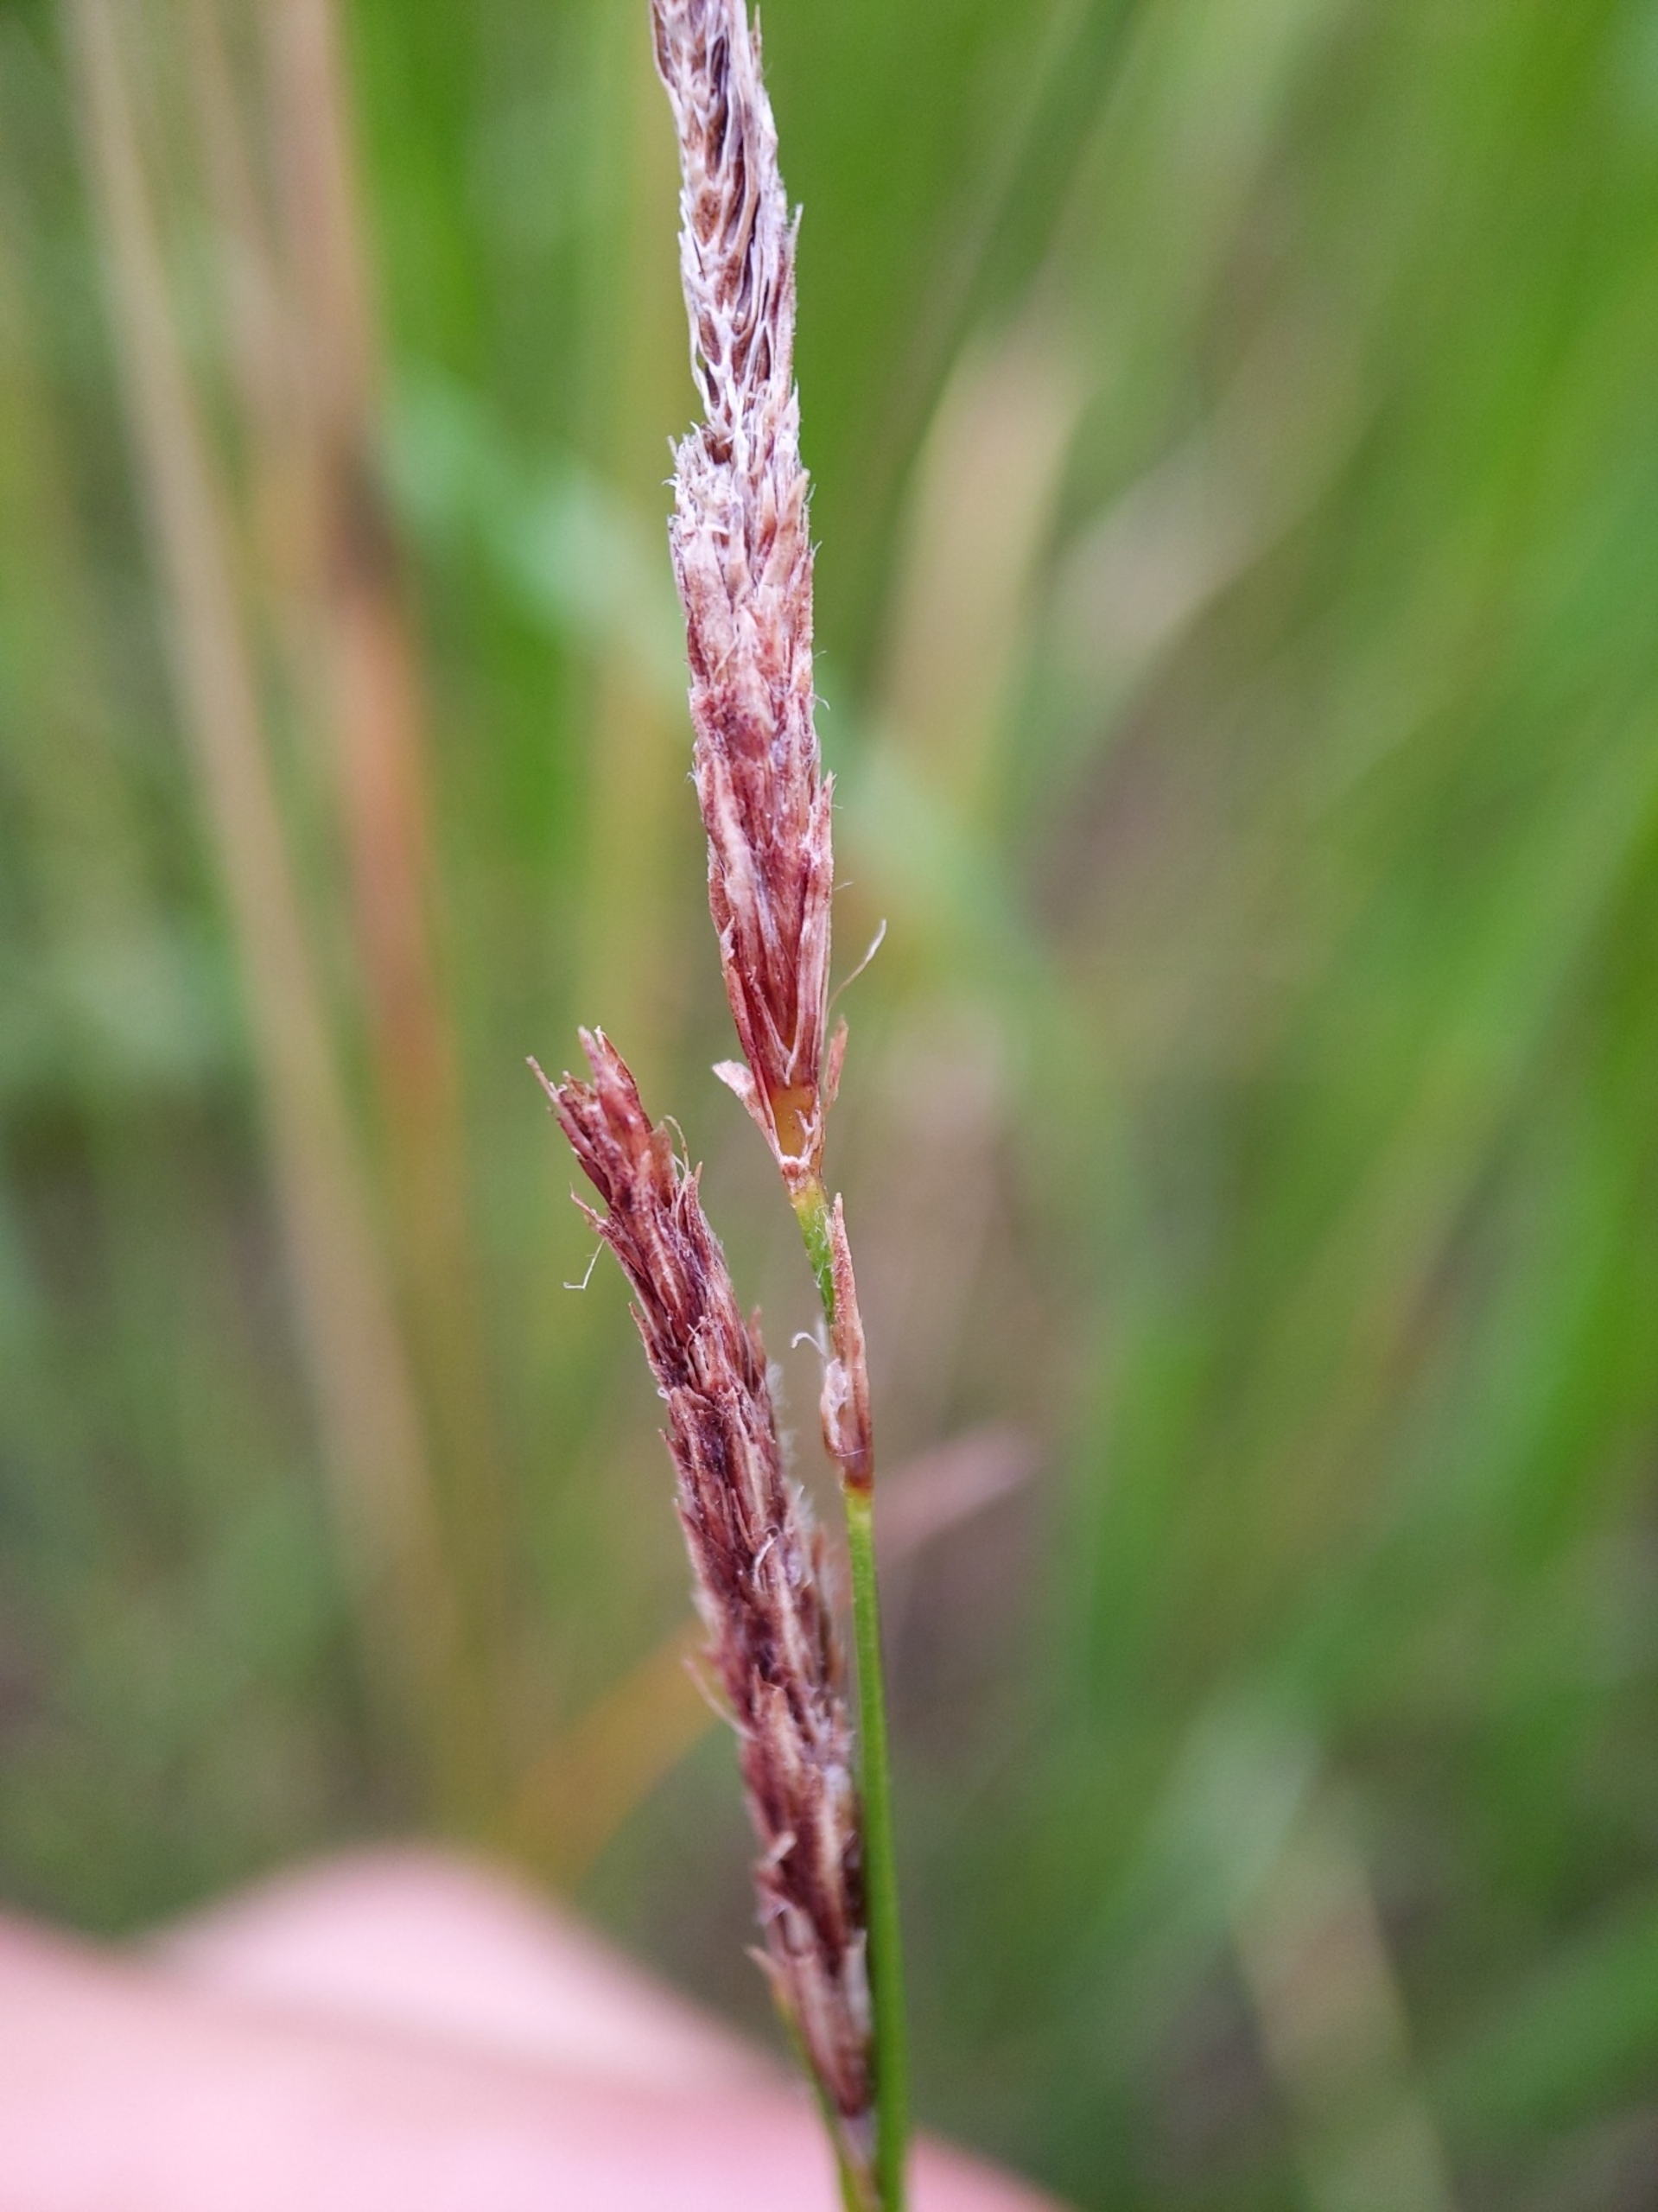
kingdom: Plantae
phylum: Tracheophyta
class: Liliopsida
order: Poales
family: Cyperaceae
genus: Carex
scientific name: Carex hirta
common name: Håret star
